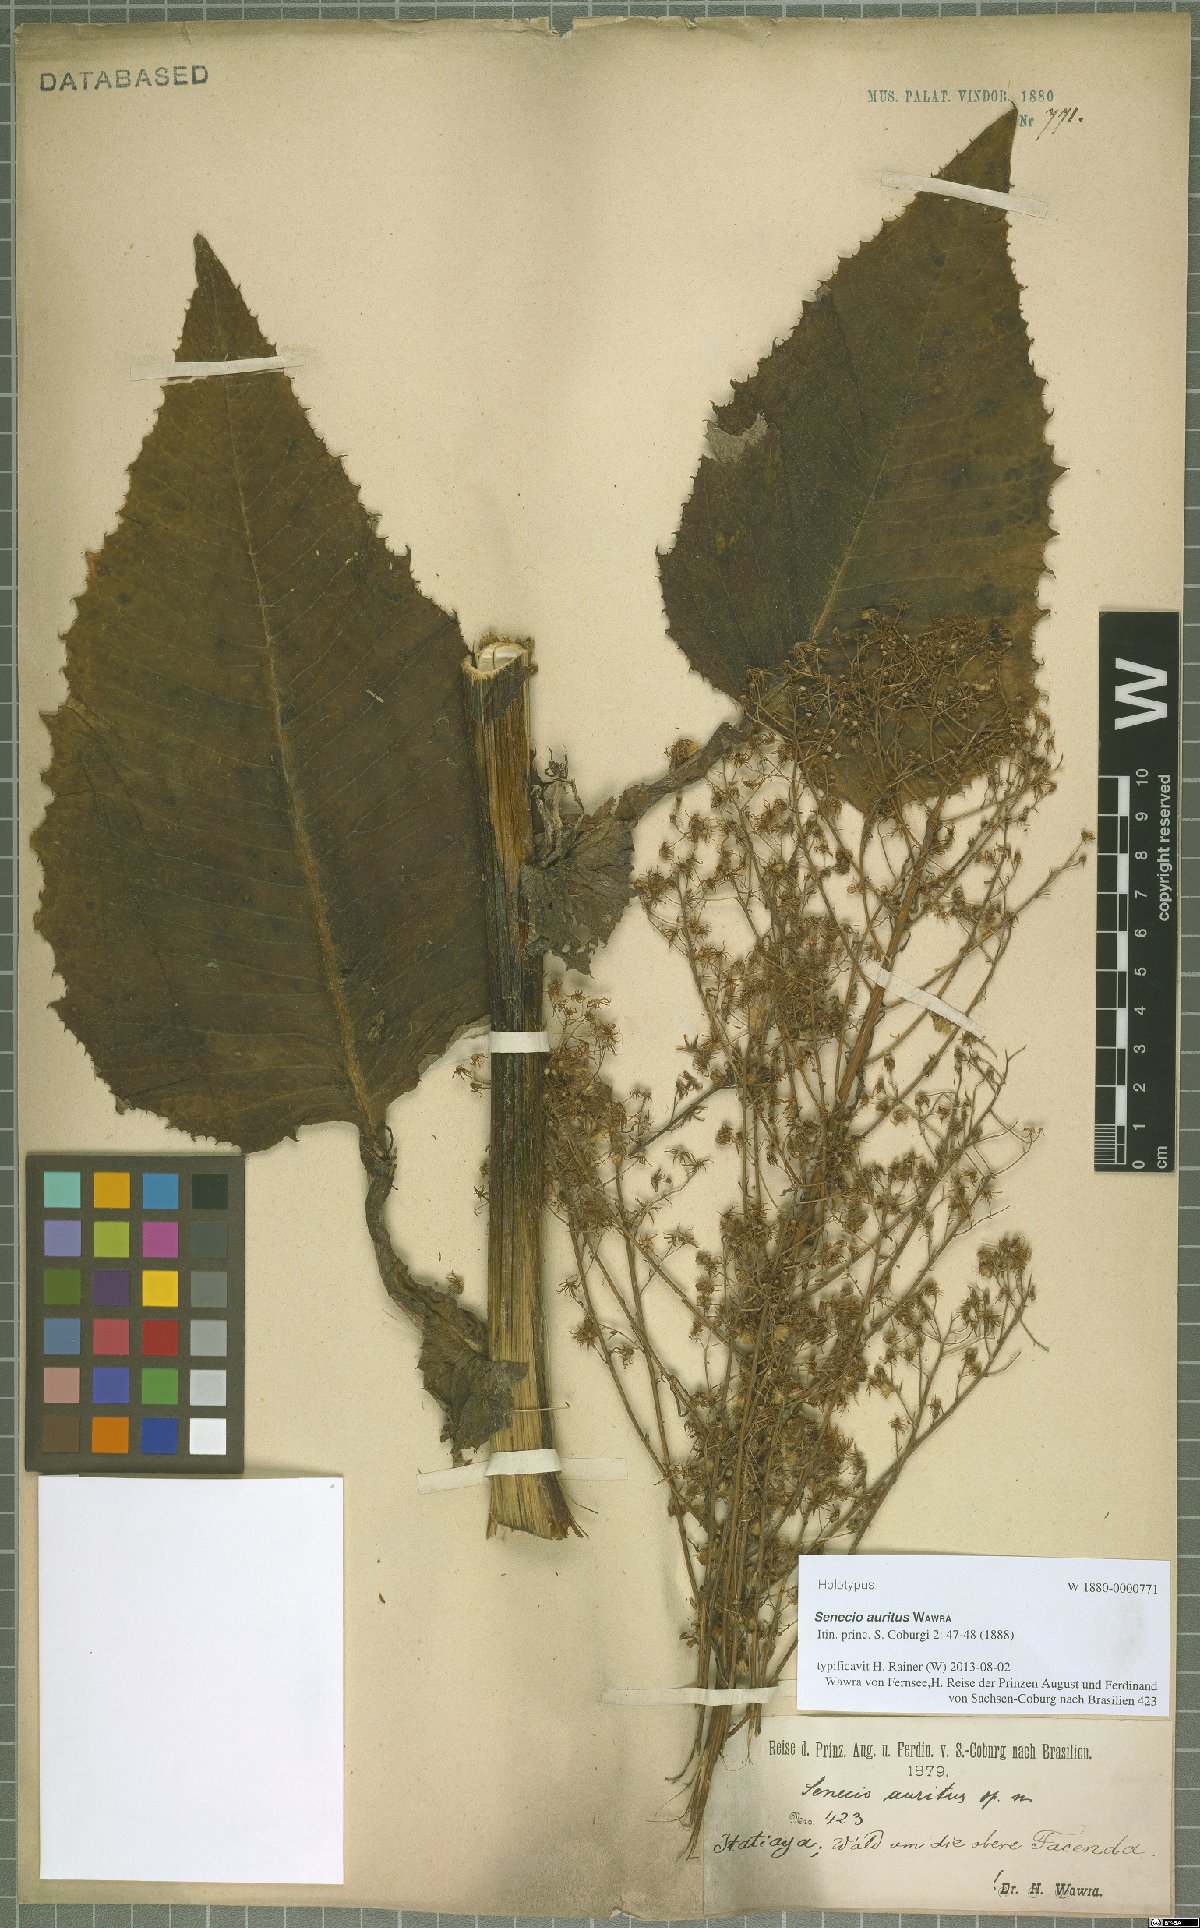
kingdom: Plantae
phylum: Tracheophyta
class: Magnoliopsida
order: Asterales
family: Asteraceae
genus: Senecio
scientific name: Senecio auritifolius
